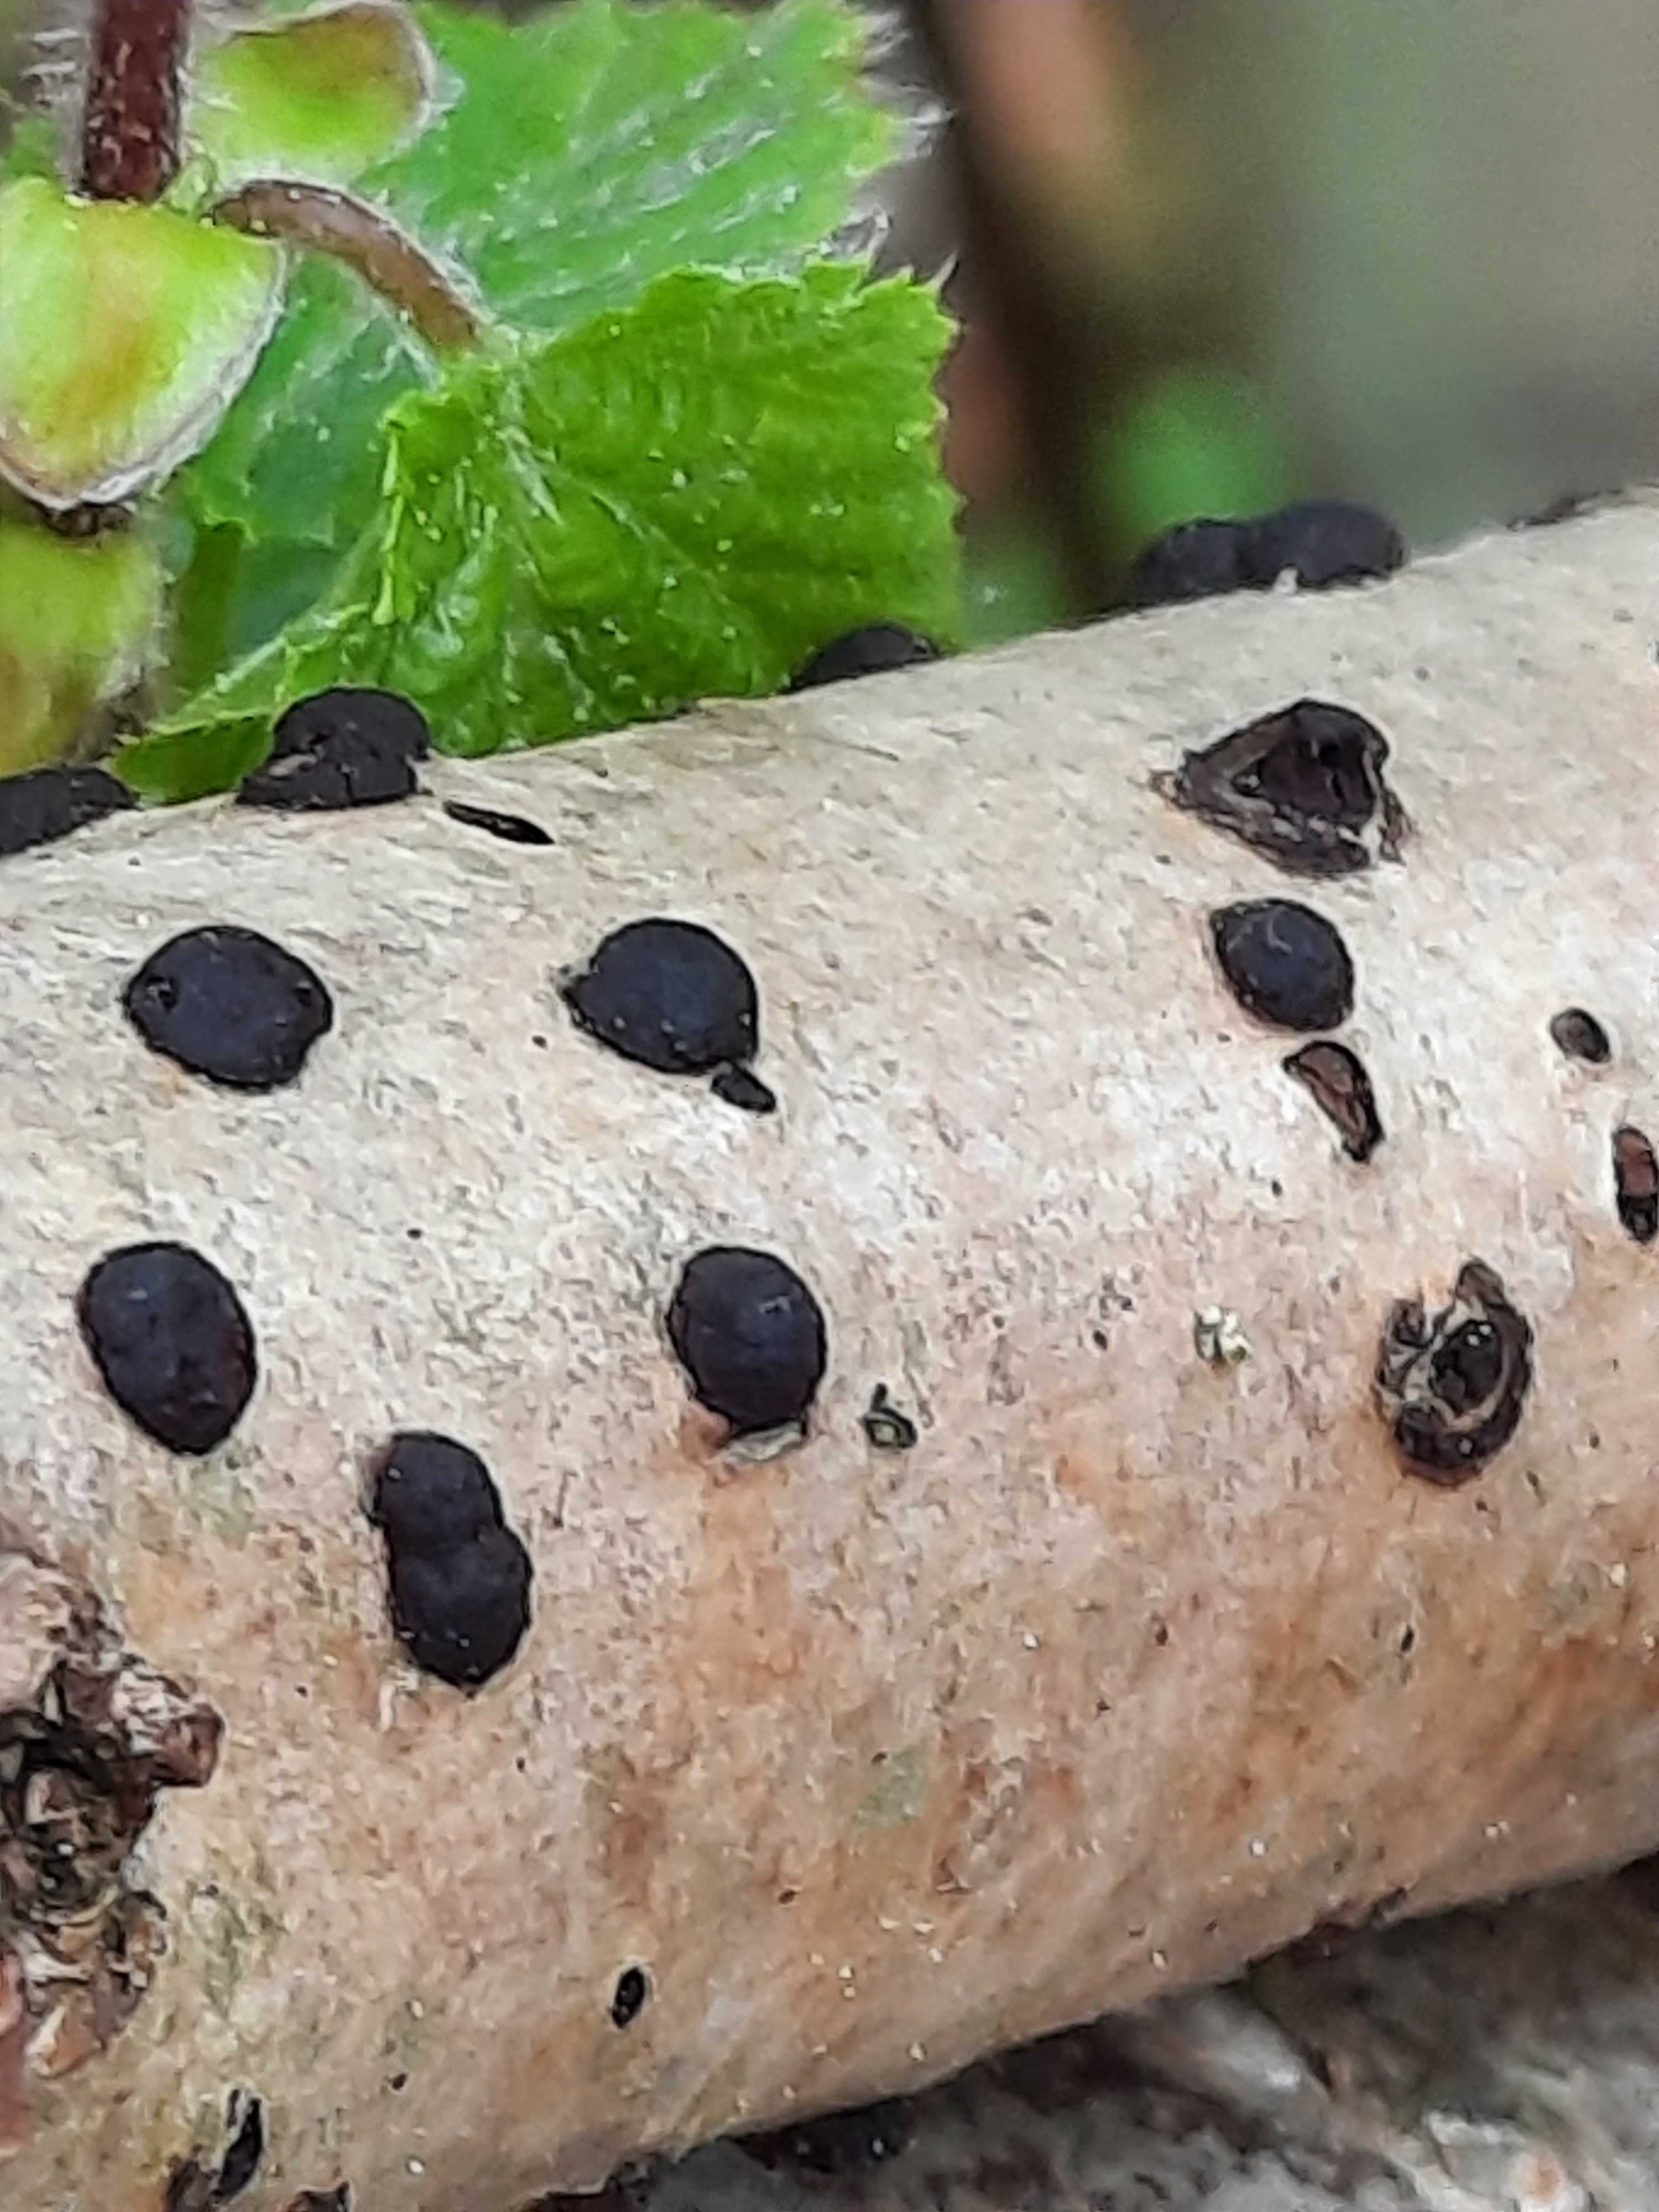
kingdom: Fungi
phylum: Ascomycota
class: Sordariomycetes
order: Xylariales
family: Hypoxylaceae
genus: Hypoxylon
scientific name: Hypoxylon fuscum
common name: kegleformet kulbær
